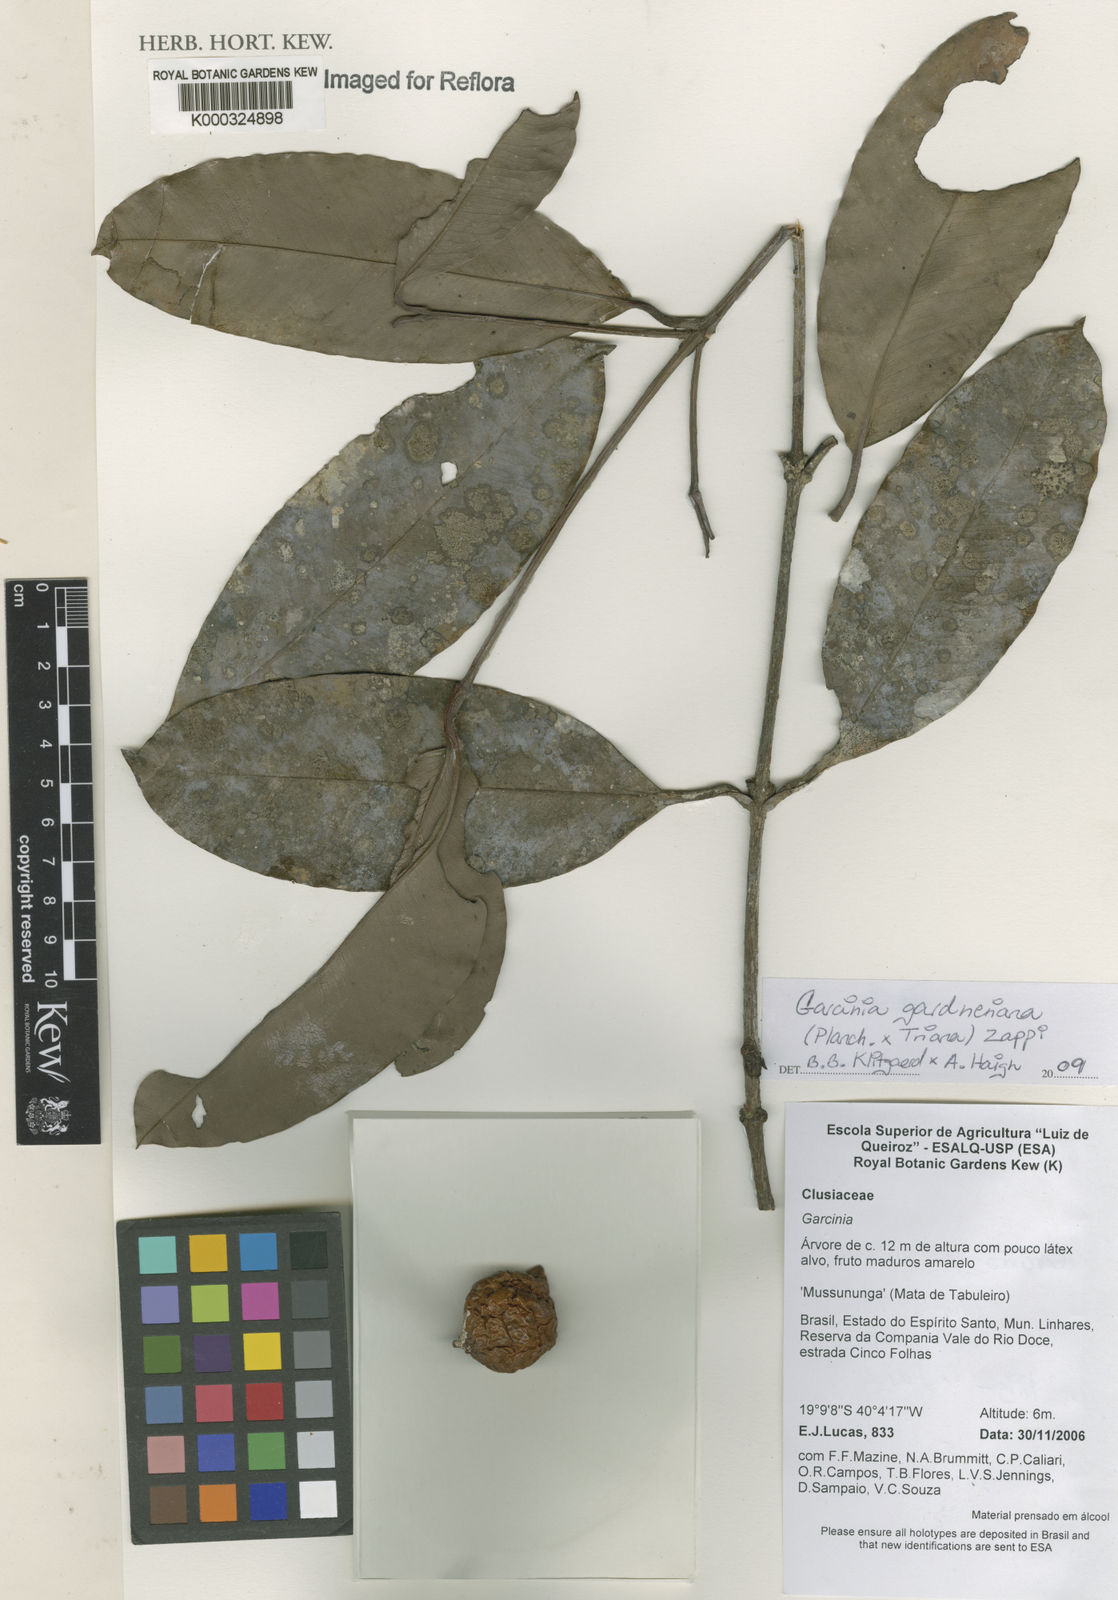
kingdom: Plantae
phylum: Tracheophyta
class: Magnoliopsida
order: Malpighiales
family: Clusiaceae
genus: Garcinia
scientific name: Garcinia gardneriana
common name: Achacha
